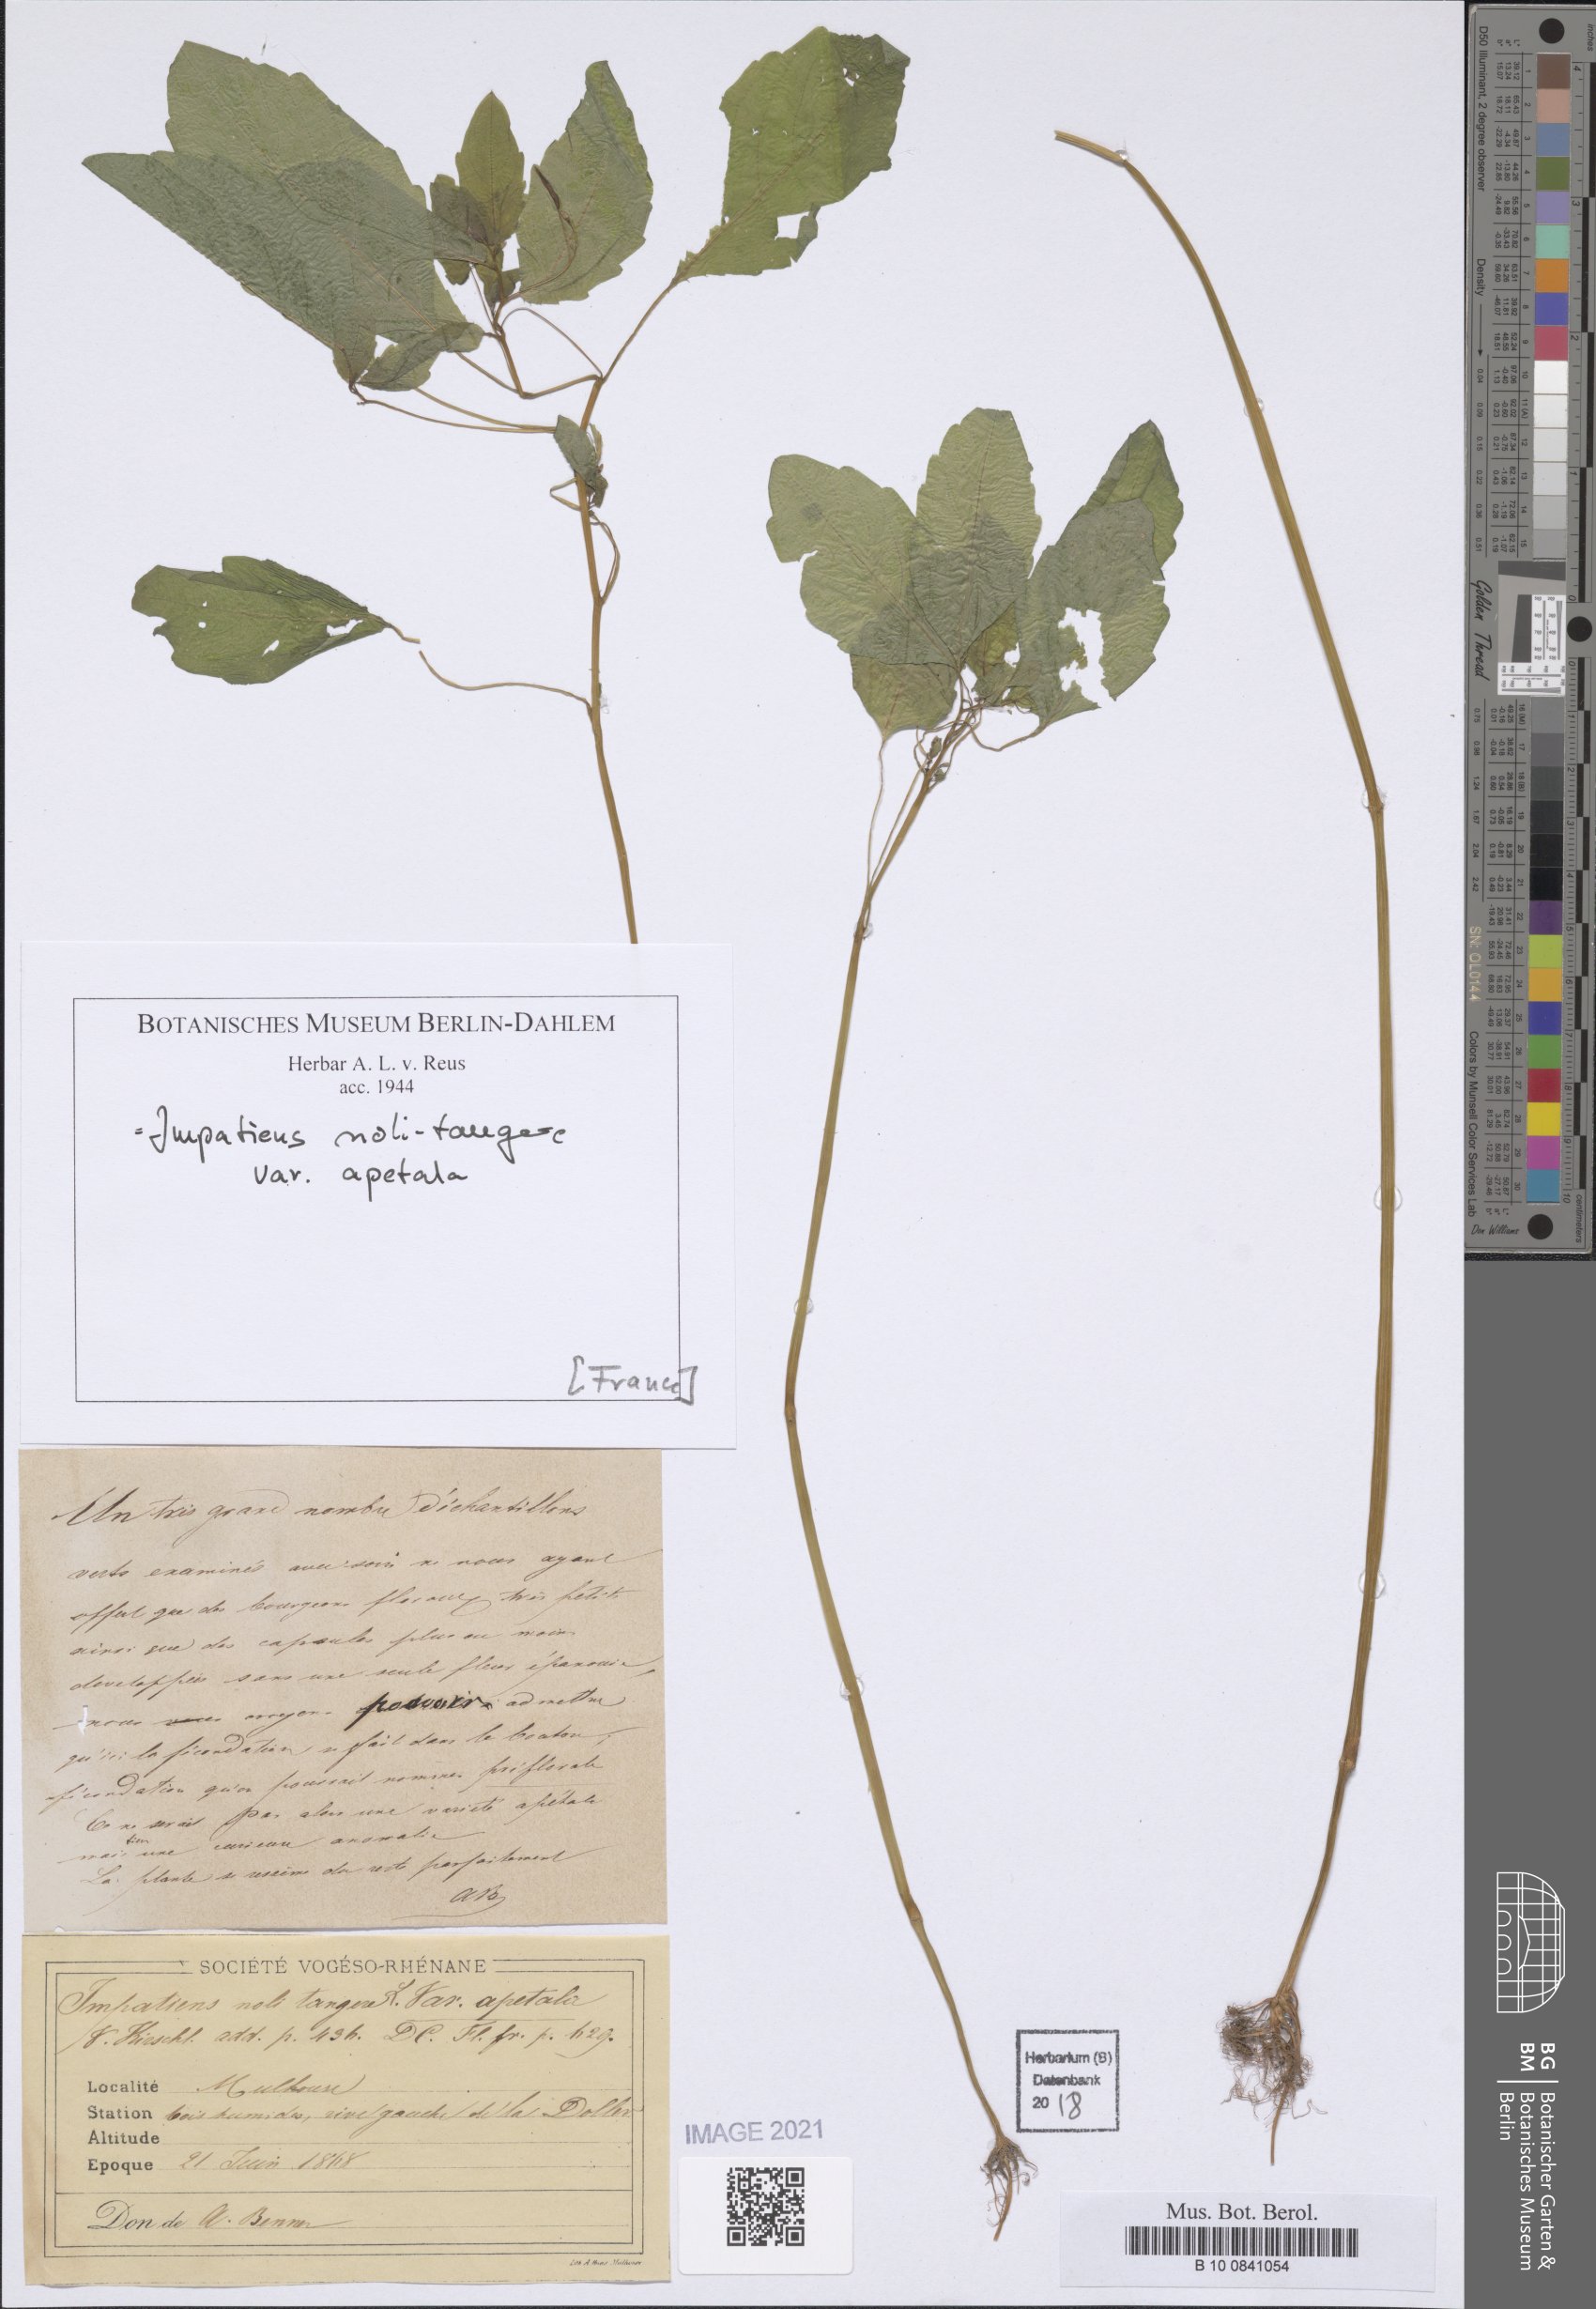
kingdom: Plantae
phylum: Tracheophyta
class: Magnoliopsida
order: Ericales
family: Balsaminaceae
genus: Impatiens
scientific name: Impatiens noli-tangere
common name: Touch-me-not balsam
